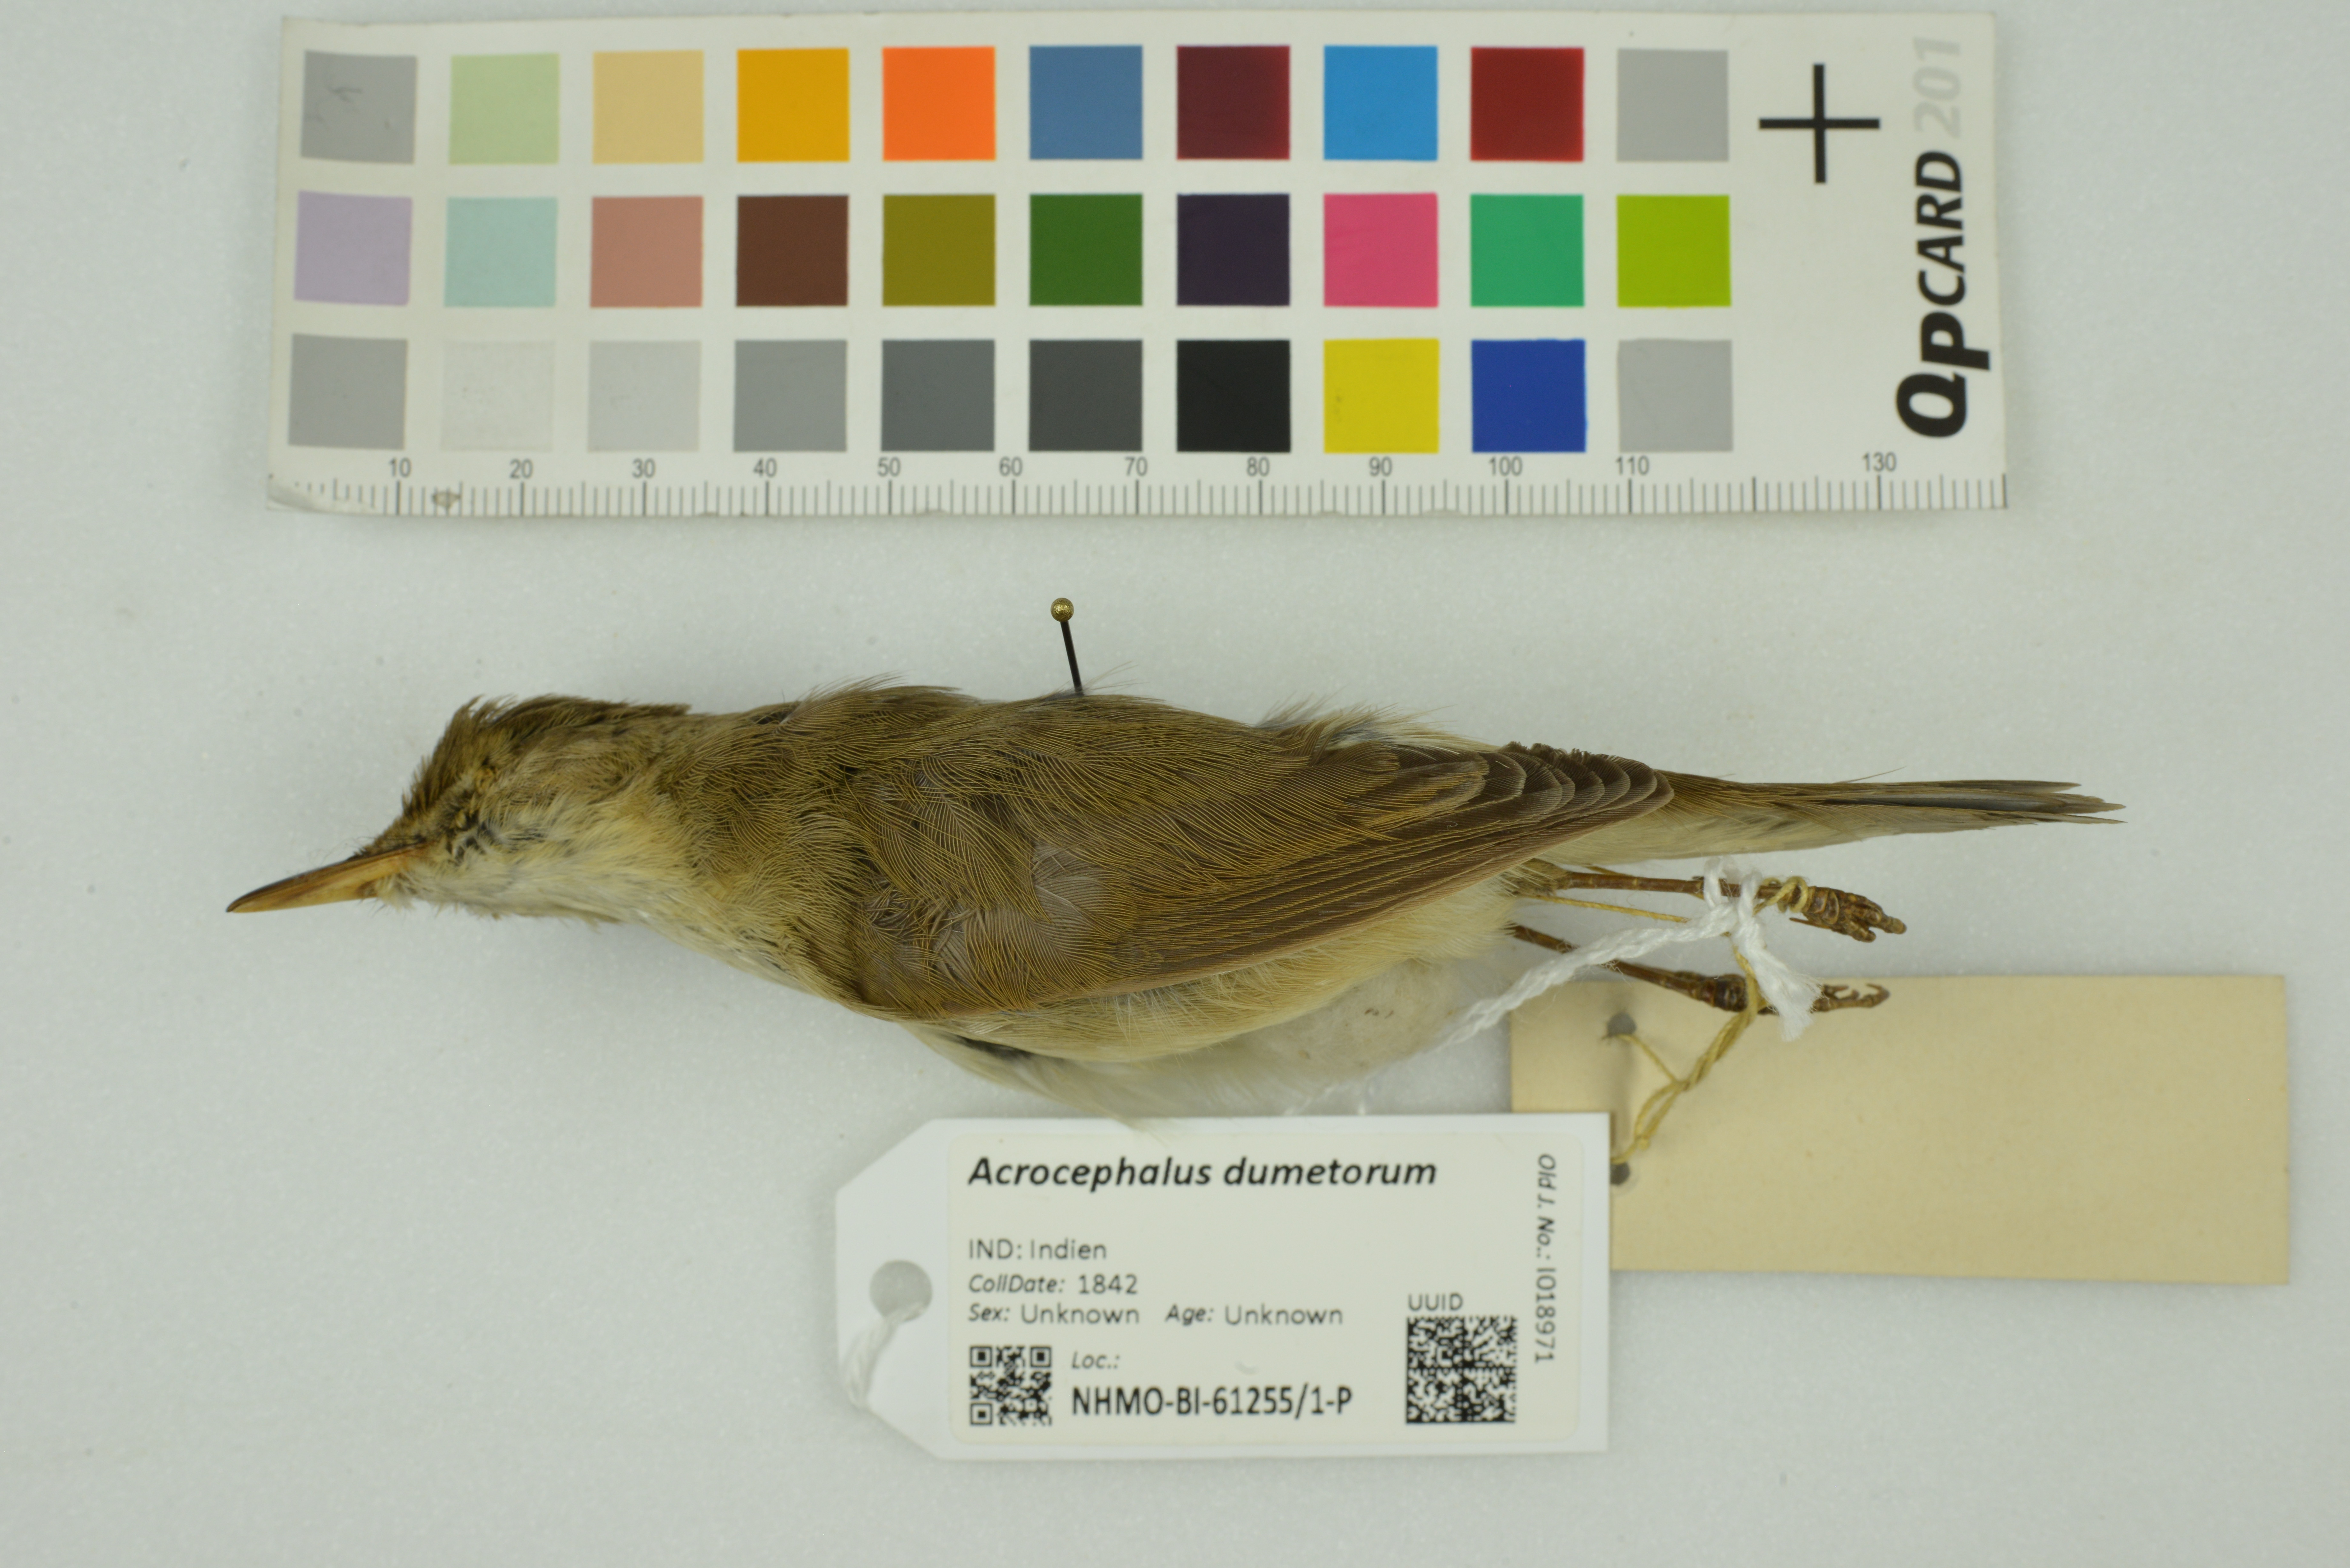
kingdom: Animalia
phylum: Chordata
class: Aves
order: Passeriformes
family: Acrocephalidae
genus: Acrocephalus
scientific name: Acrocephalus dumetorum
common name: Blyth's reed warbler
